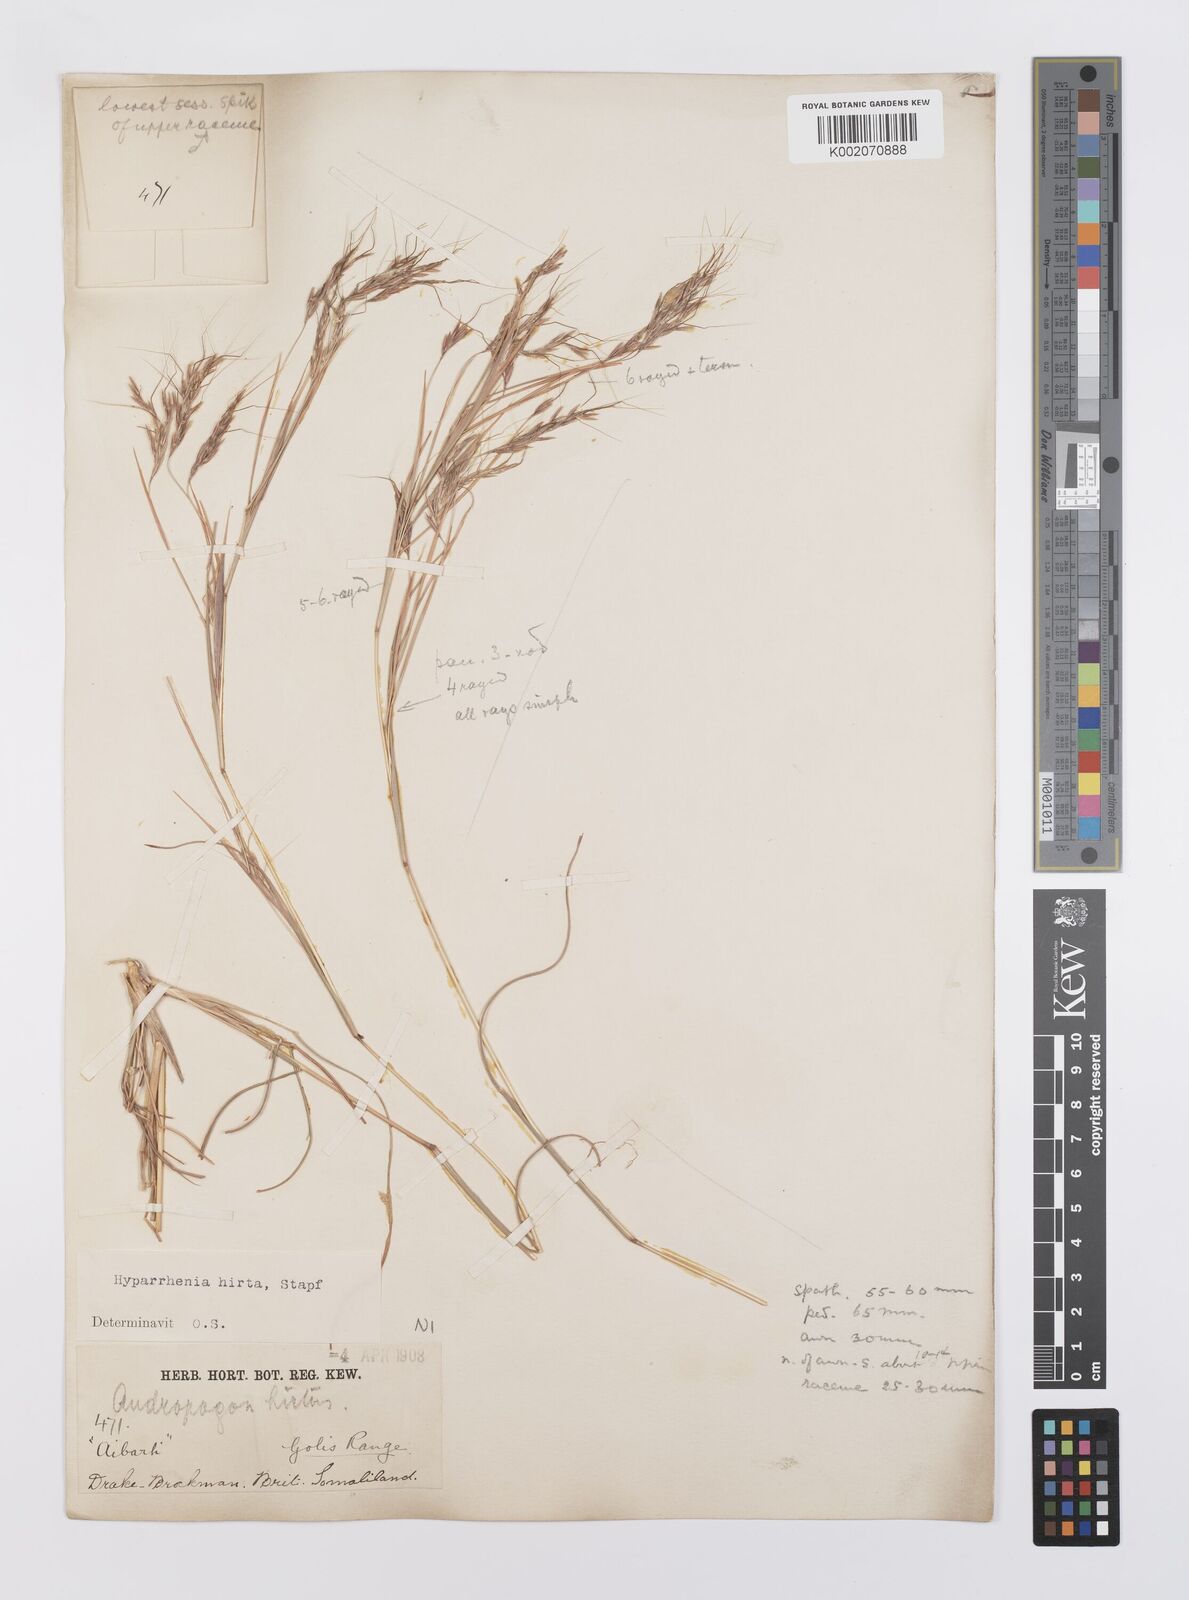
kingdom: Plantae
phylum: Tracheophyta
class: Liliopsida
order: Poales
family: Poaceae
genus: Hyparrhenia
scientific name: Hyparrhenia hirta
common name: Thatching grass
